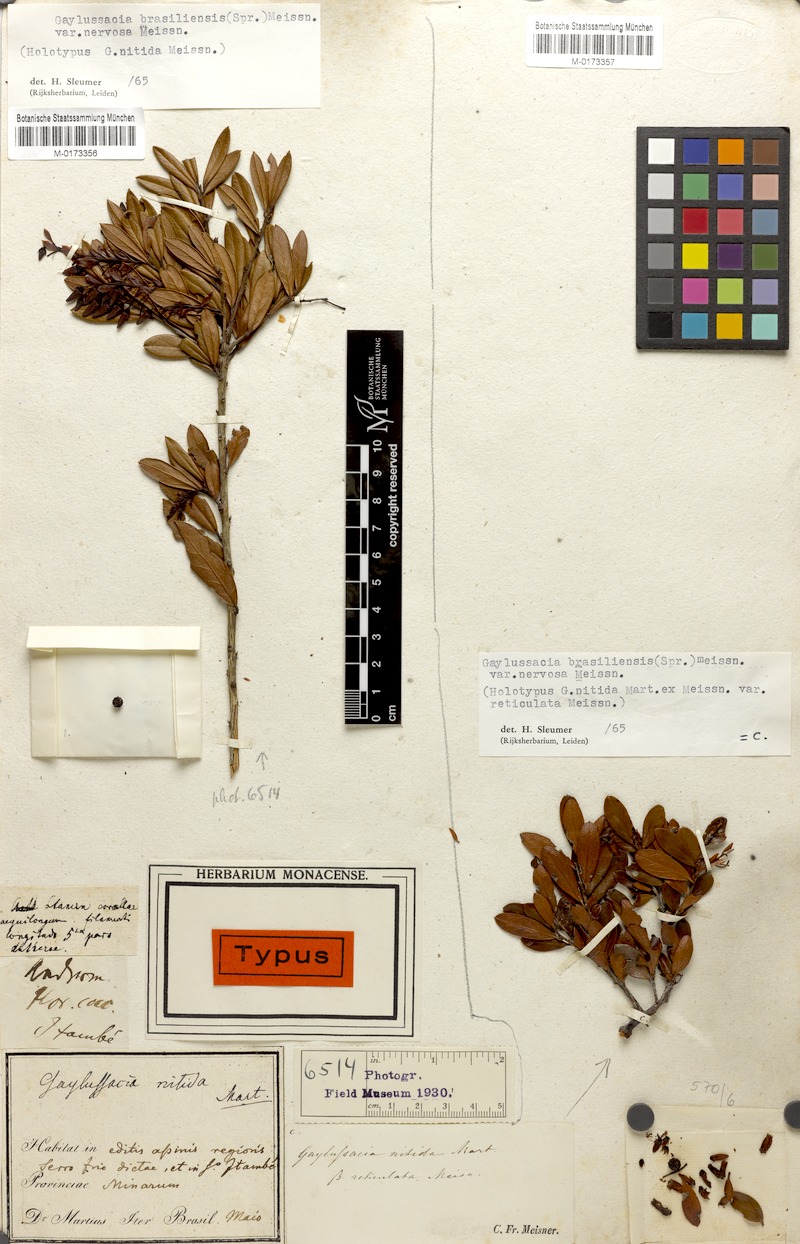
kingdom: Plantae
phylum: Tracheophyta
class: Magnoliopsida
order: Ericales
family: Ericaceae
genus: Gaylussacia
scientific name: Gaylussacia brasiliensis
